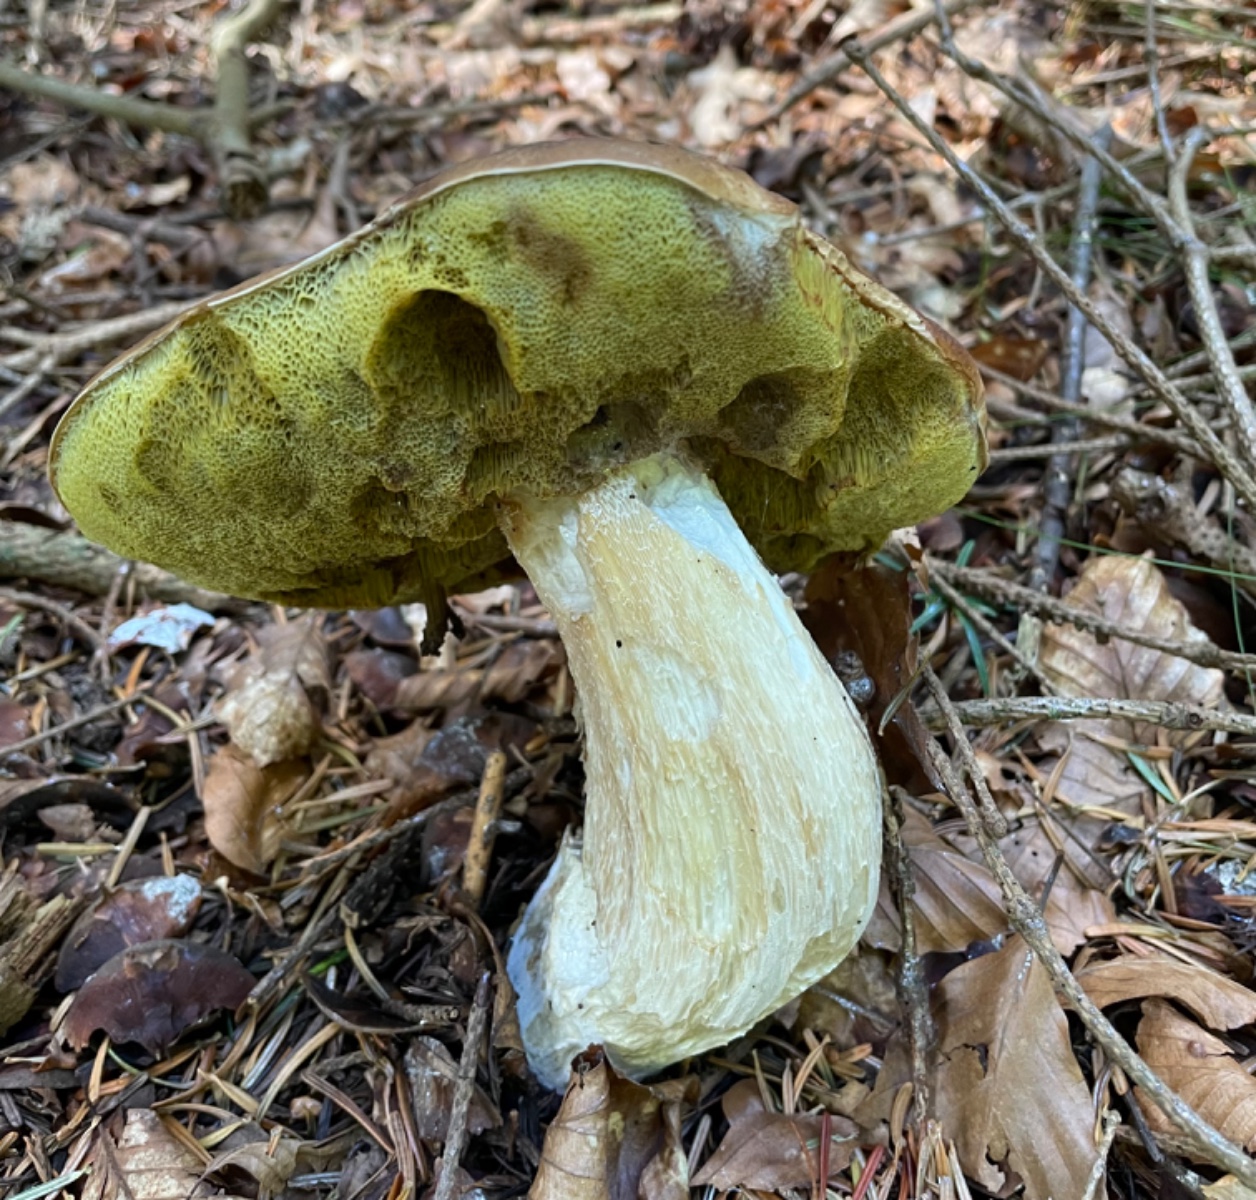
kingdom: Fungi
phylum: Basidiomycota
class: Agaricomycetes
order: Boletales
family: Boletaceae
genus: Boletus
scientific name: Boletus edulis
